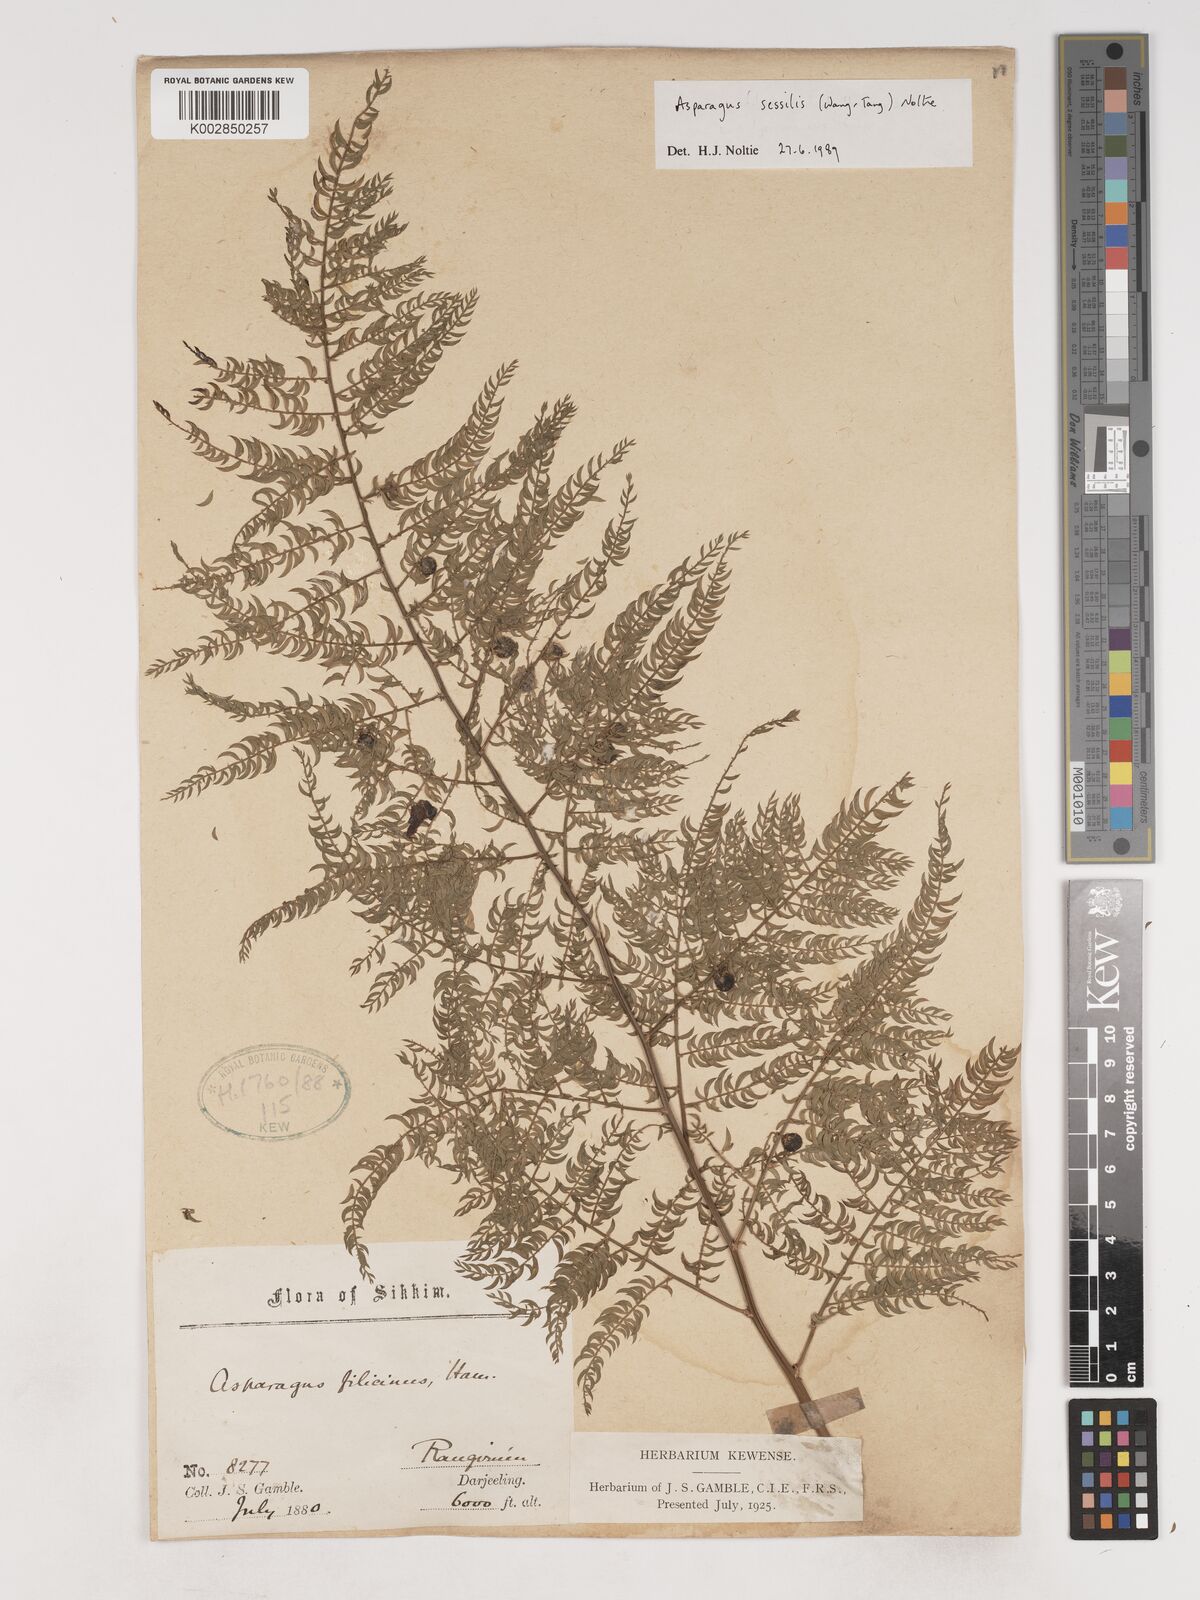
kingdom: Plantae
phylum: Tracheophyta
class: Liliopsida
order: Asparagales
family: Asparagaceae
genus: Asparagus
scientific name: Asparagus
